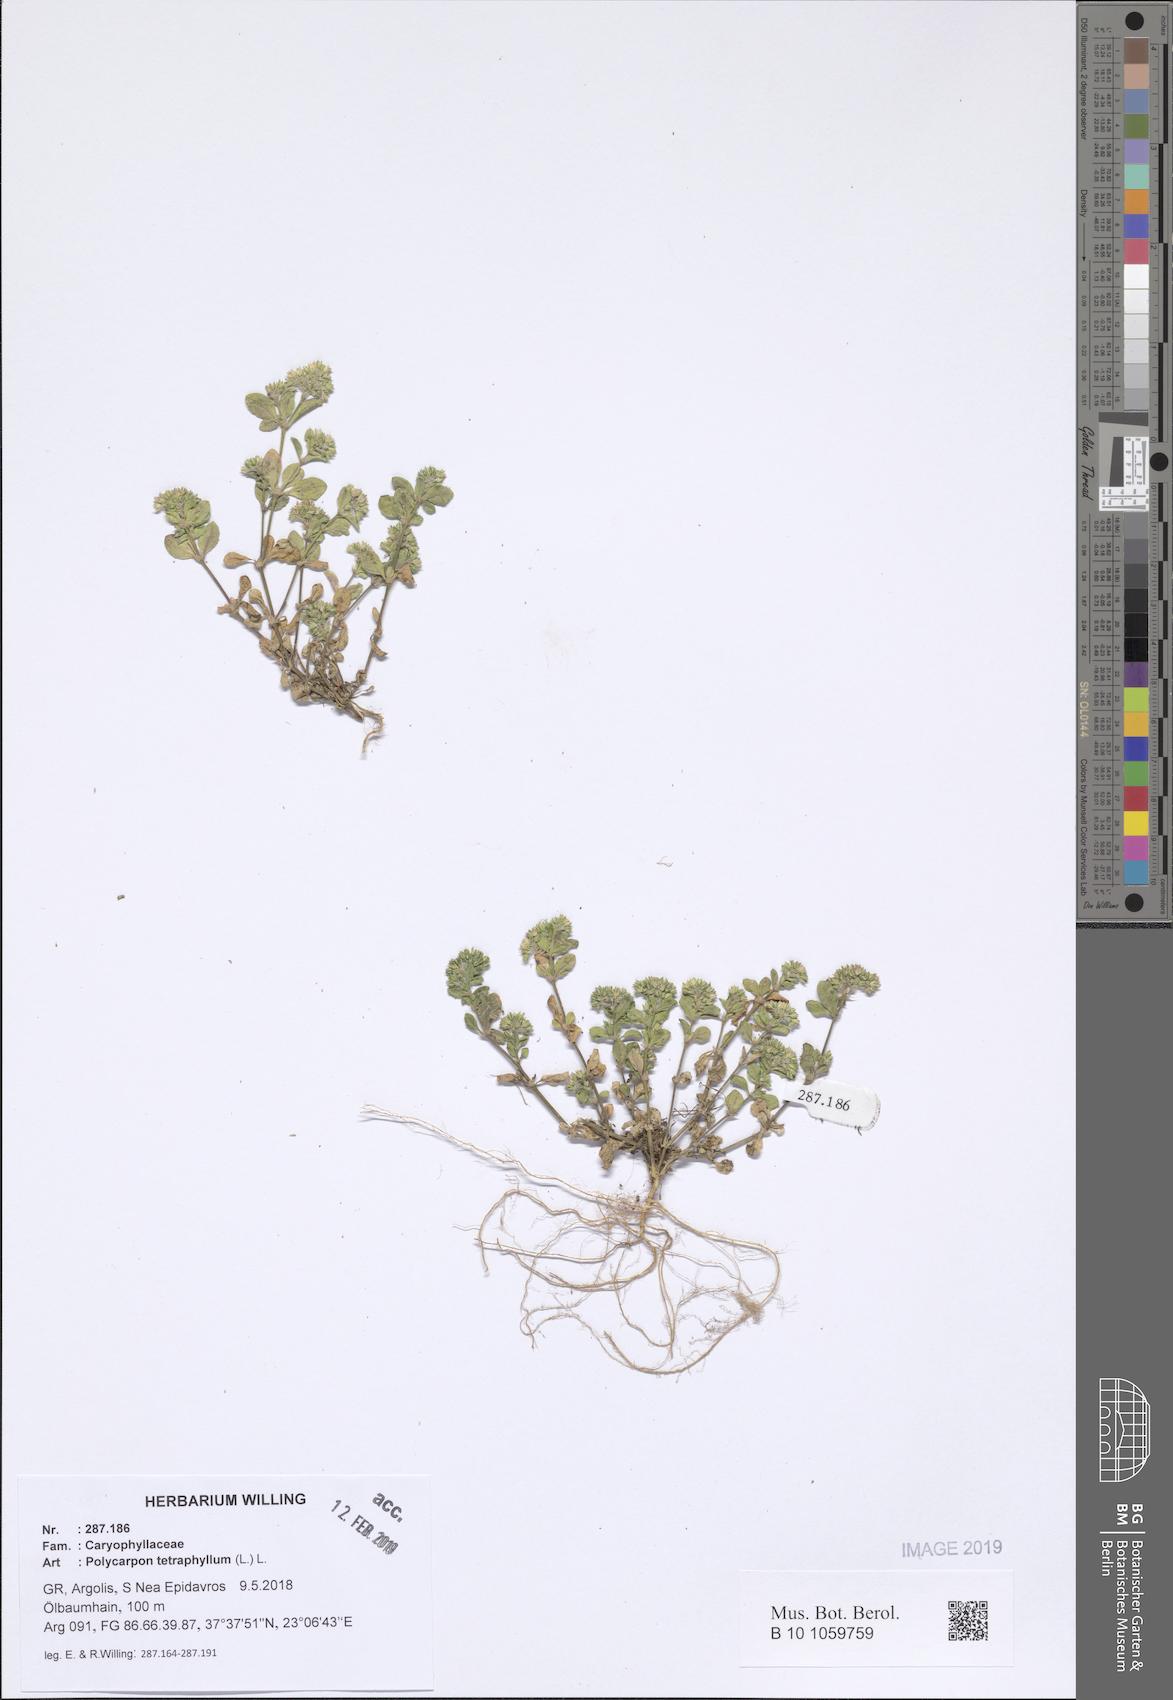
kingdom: Plantae
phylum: Tracheophyta
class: Magnoliopsida
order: Caryophyllales
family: Caryophyllaceae
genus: Polycarpon
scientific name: Polycarpon tetraphyllum
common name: Four-leaved all-seed
